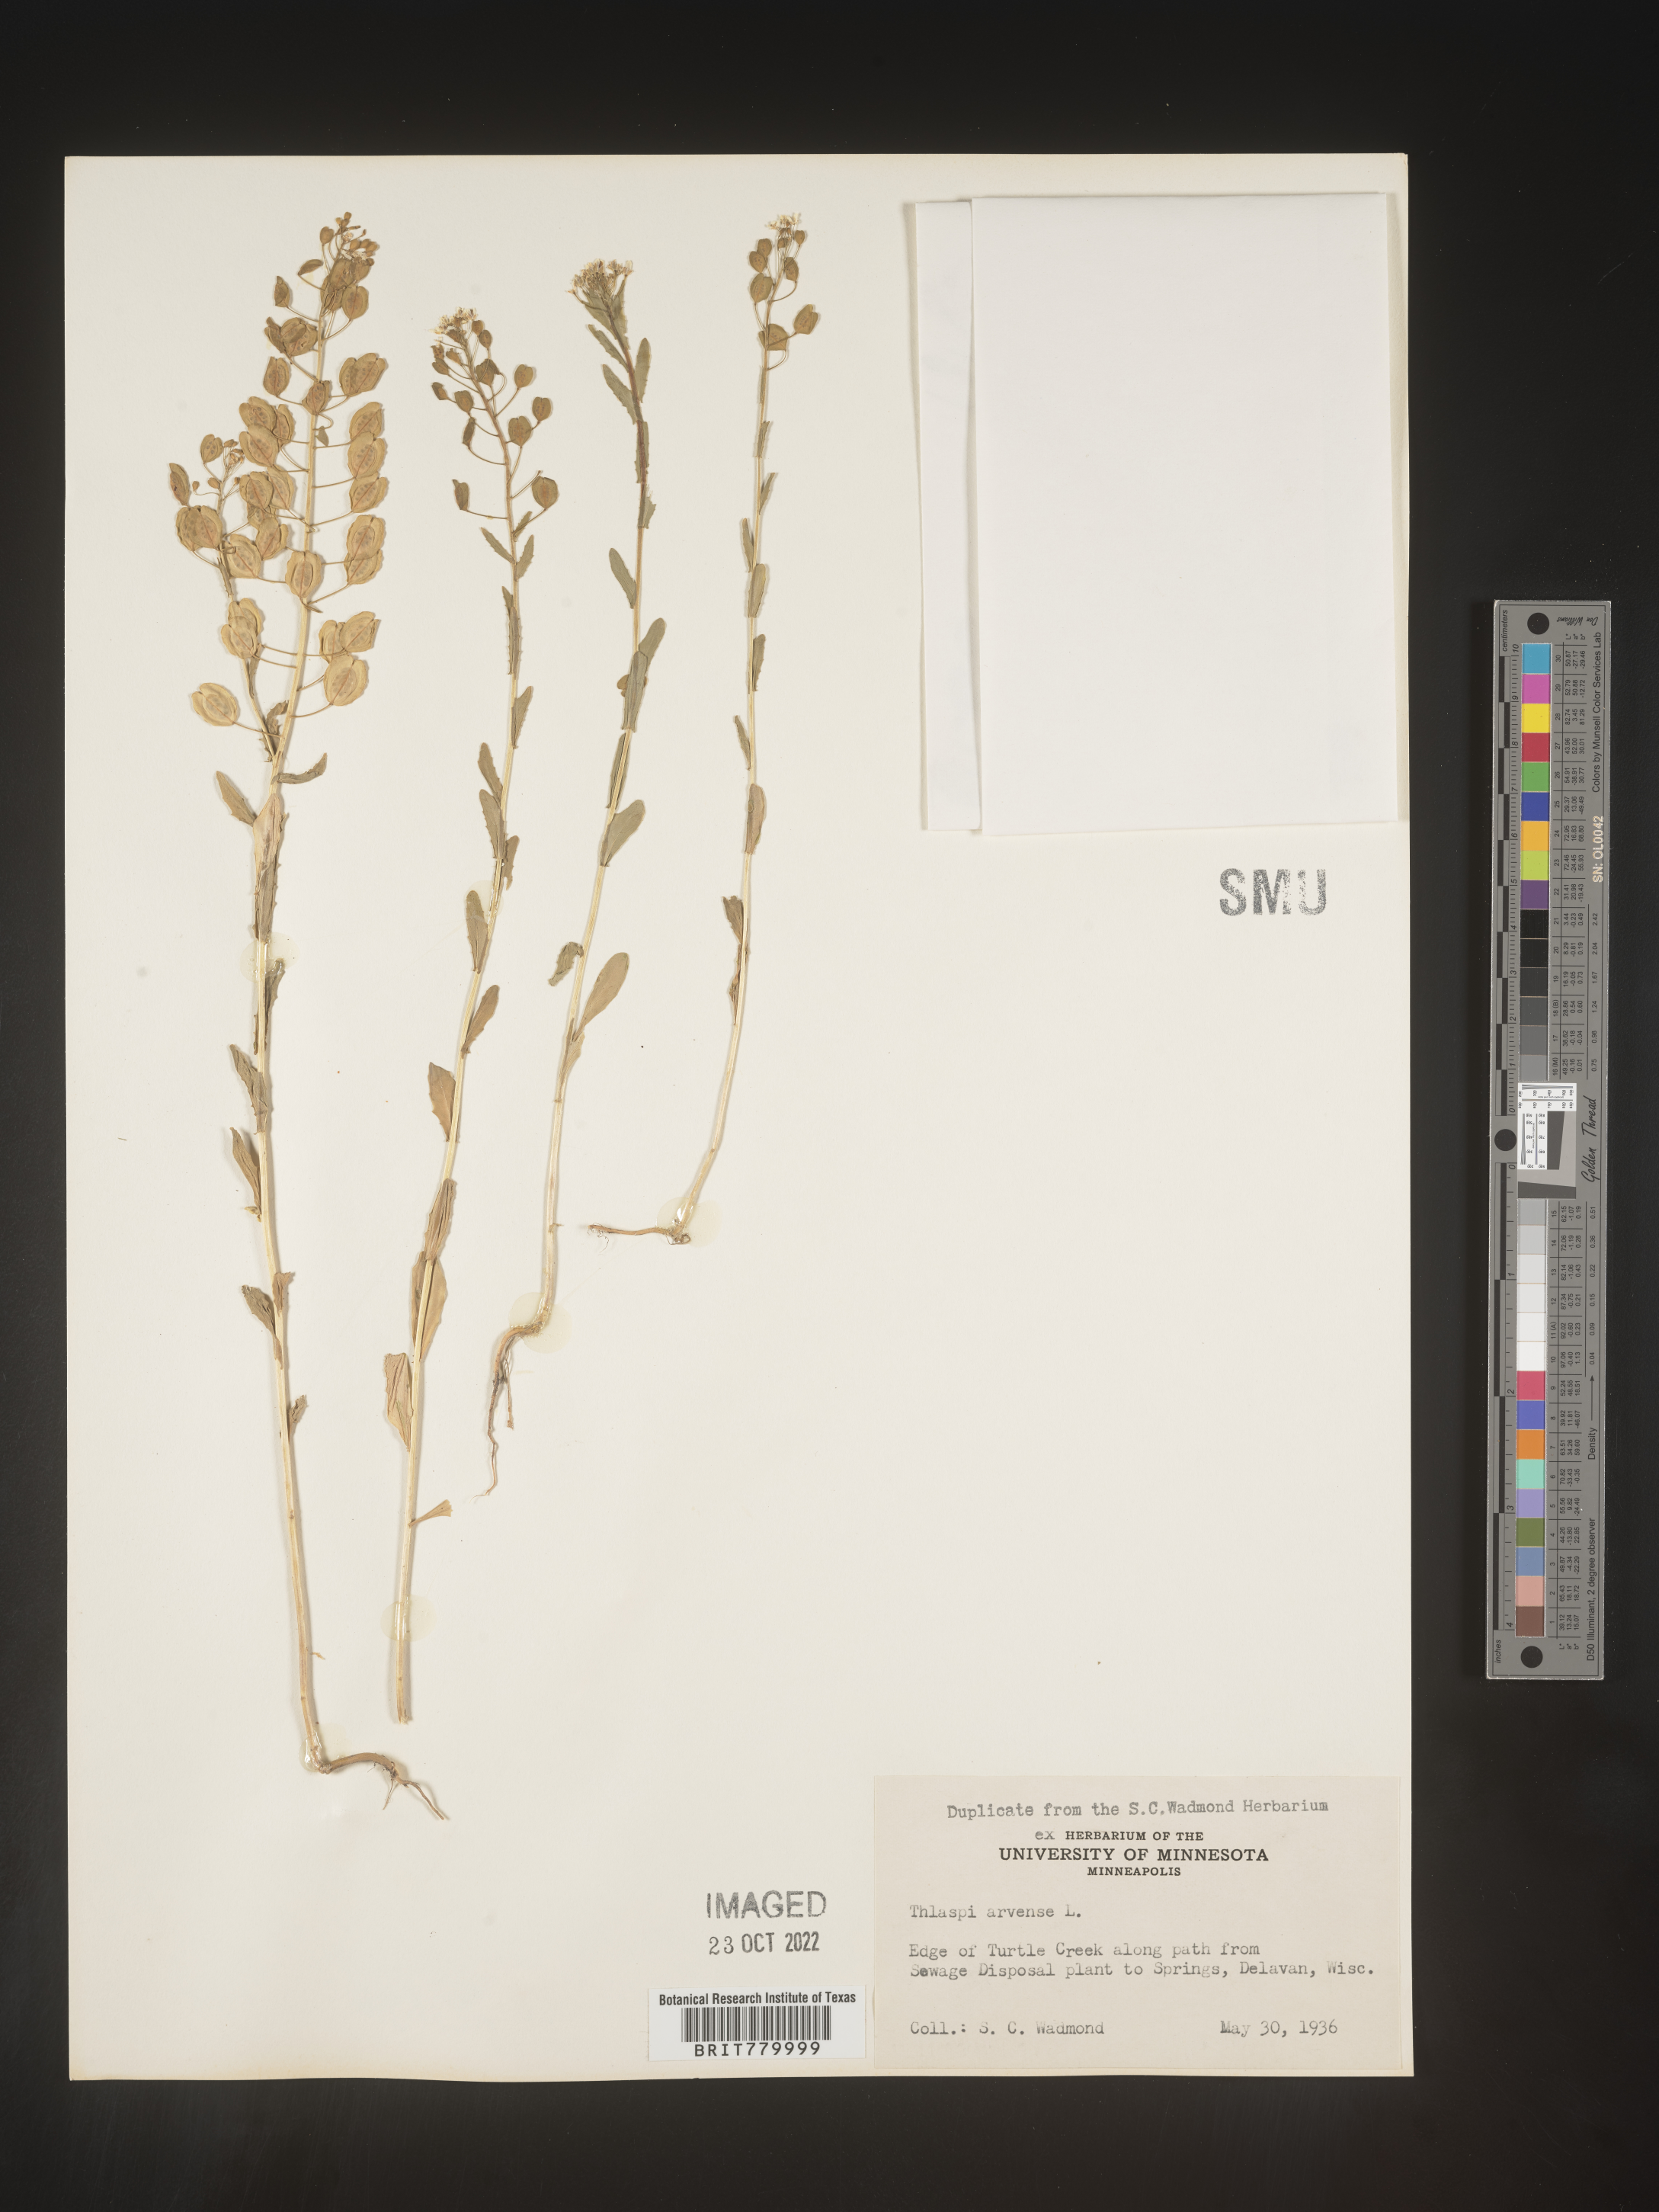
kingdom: Plantae
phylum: Tracheophyta
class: Magnoliopsida
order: Brassicales
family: Brassicaceae
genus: Thlaspi
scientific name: Thlaspi arvense
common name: Field pennycress
